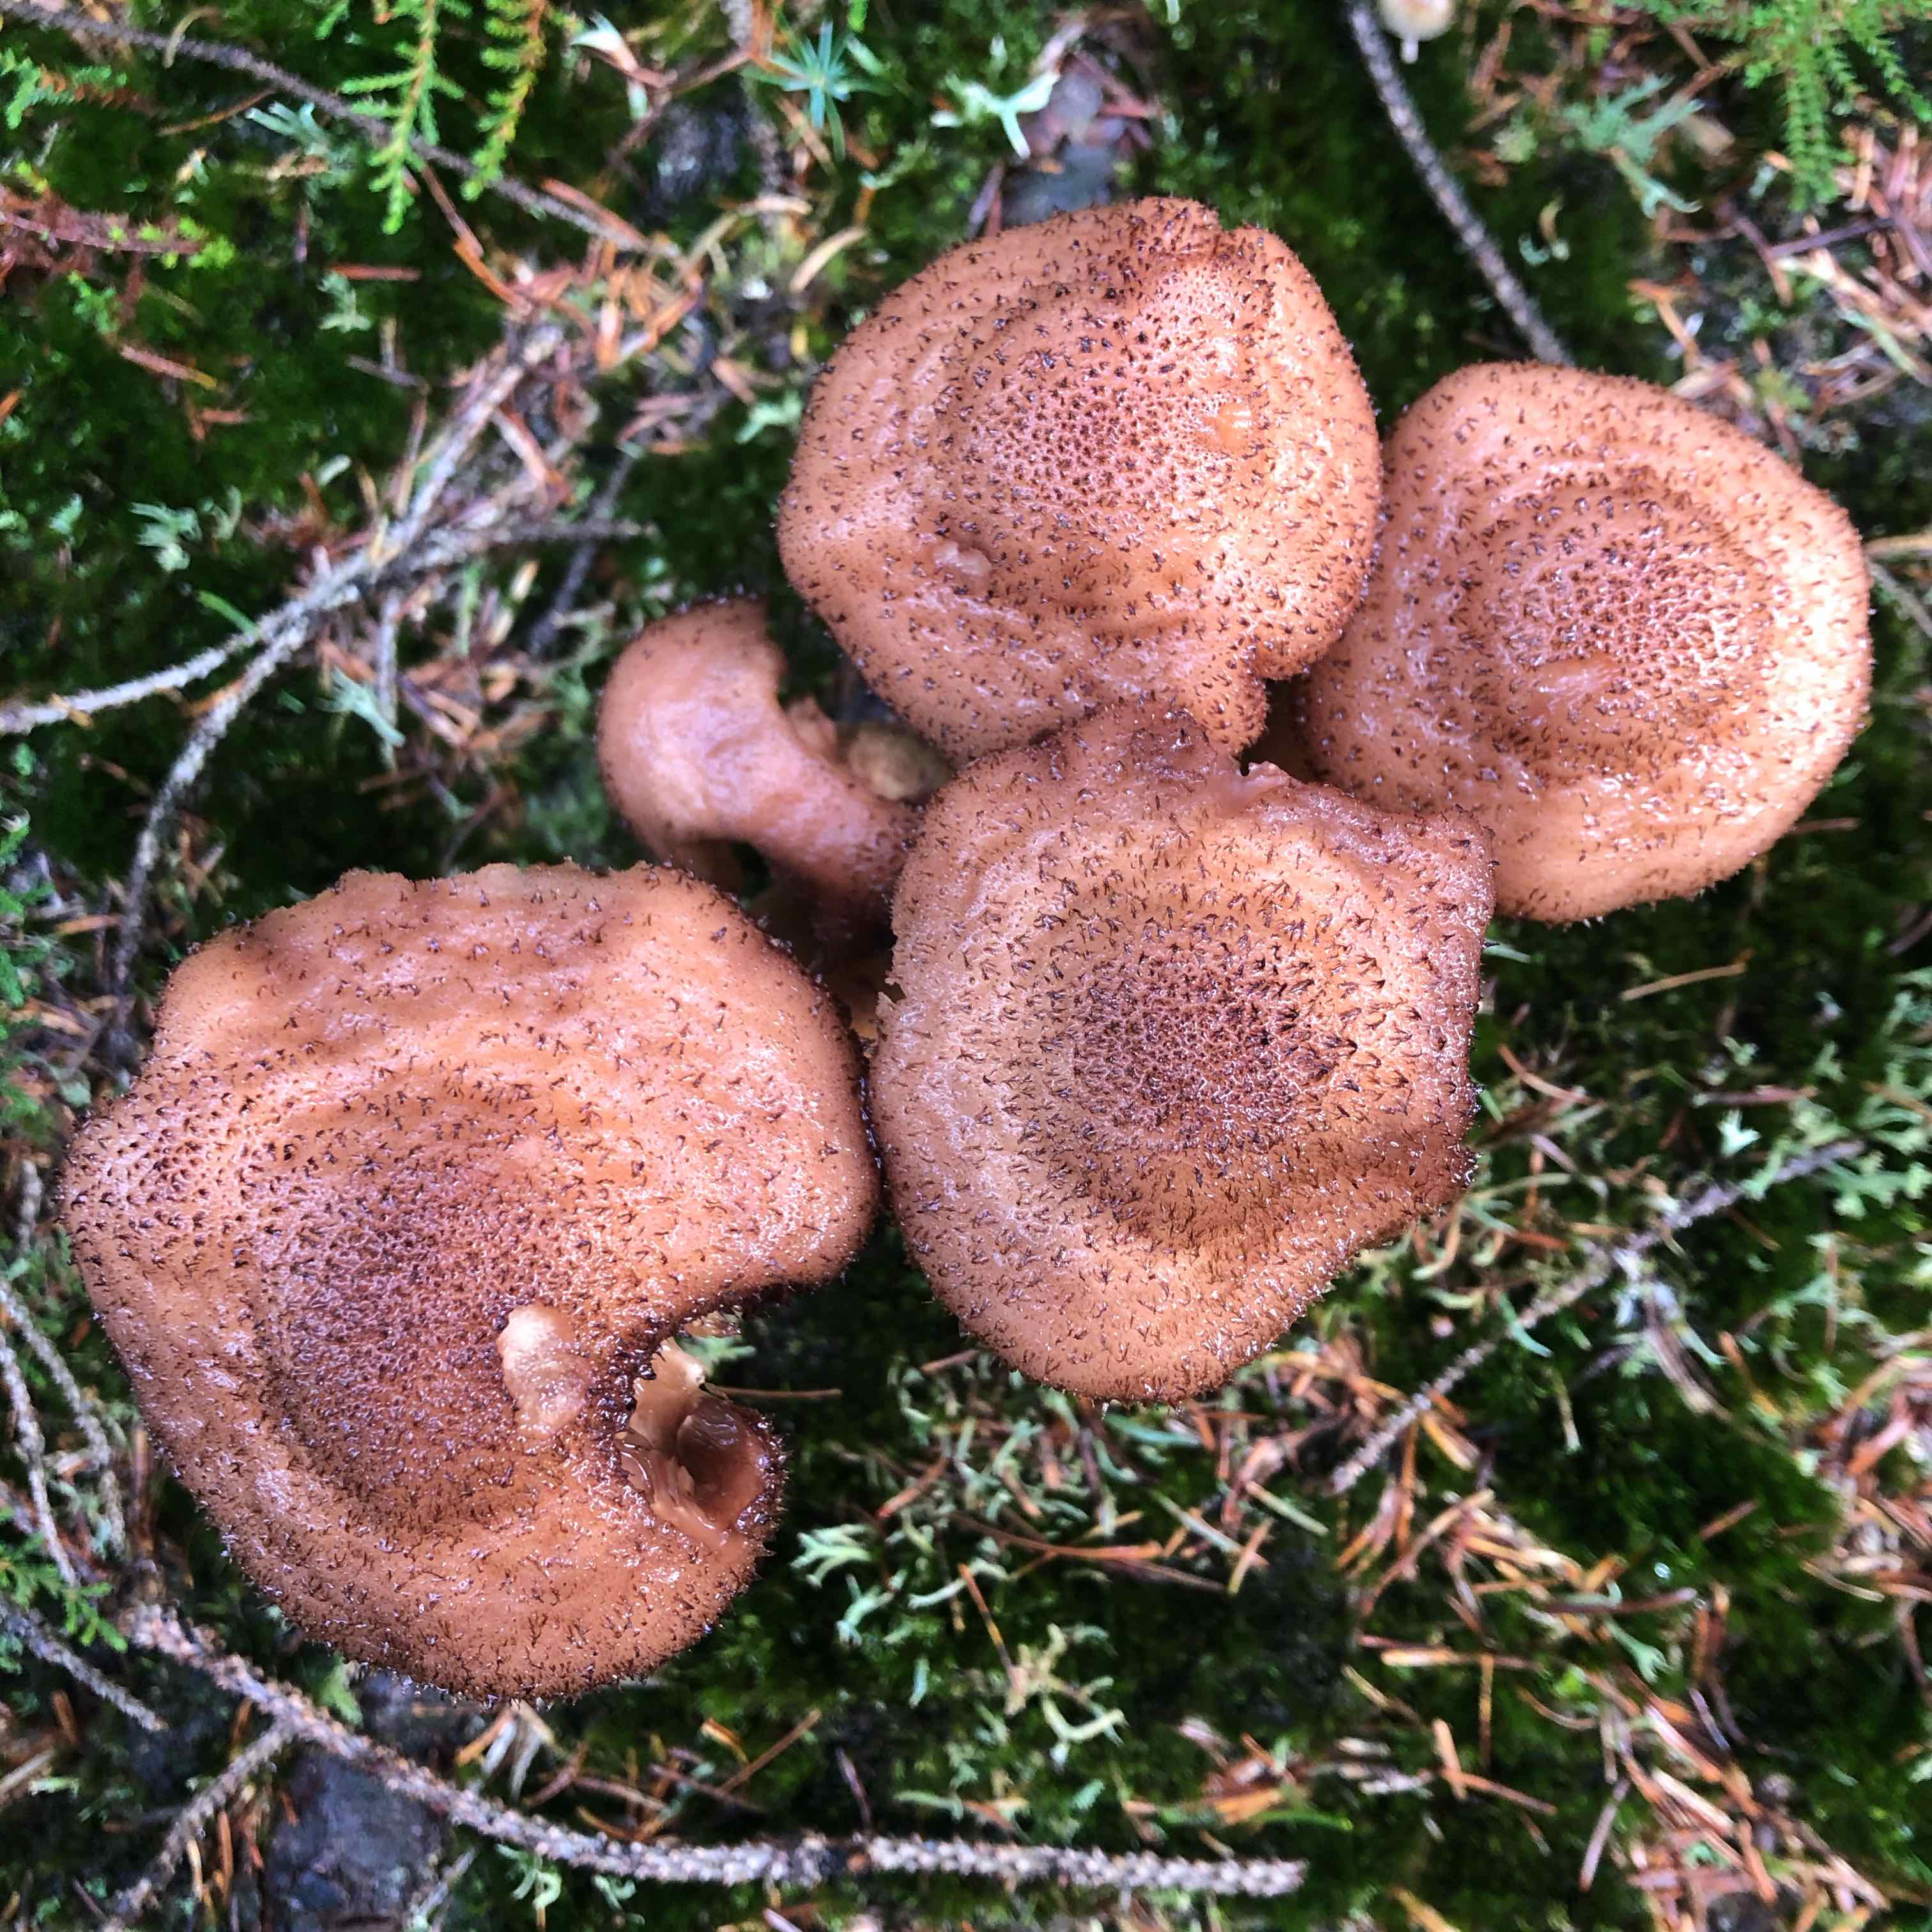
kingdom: Fungi
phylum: Basidiomycota
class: Agaricomycetes
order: Agaricales
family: Physalacriaceae
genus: Armillaria
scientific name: Armillaria ostoyae
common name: mørk honningsvamp
